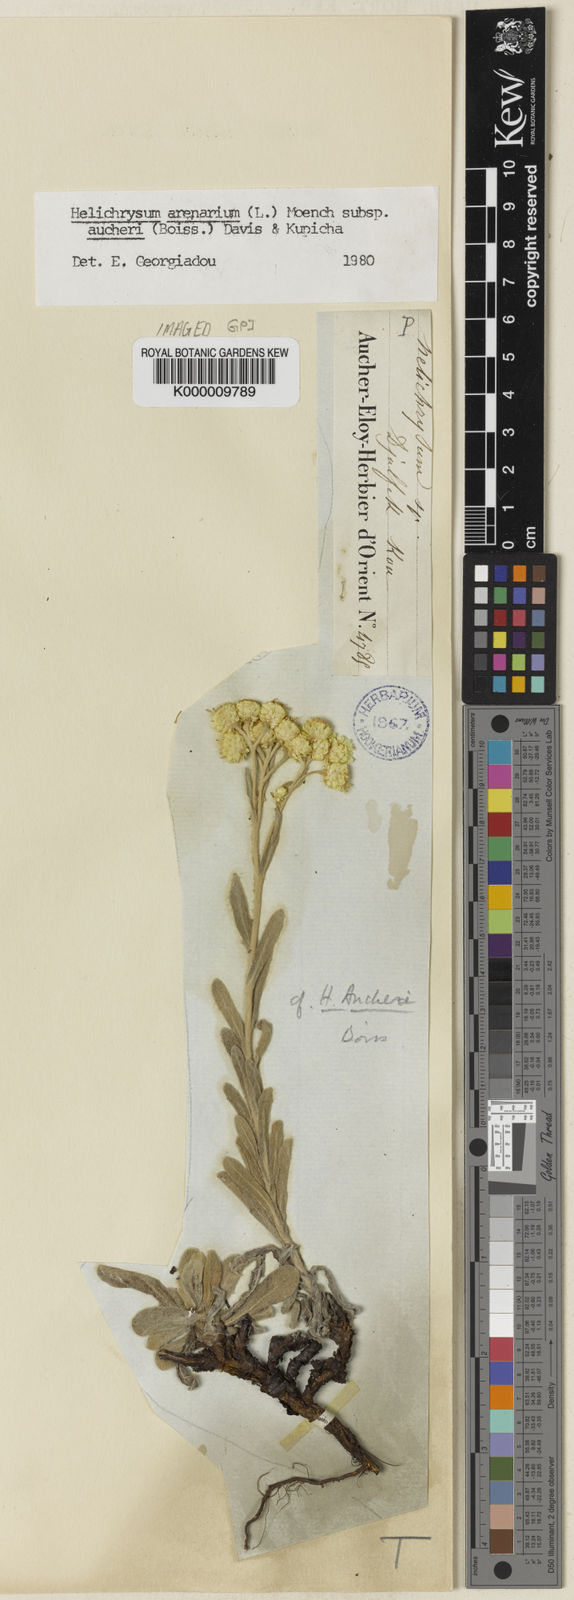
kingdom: Plantae
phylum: Tracheophyta
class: Magnoliopsida
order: Asterales
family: Asteraceae
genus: Helichrysum
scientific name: Helichrysum arenarium
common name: Strawflower
